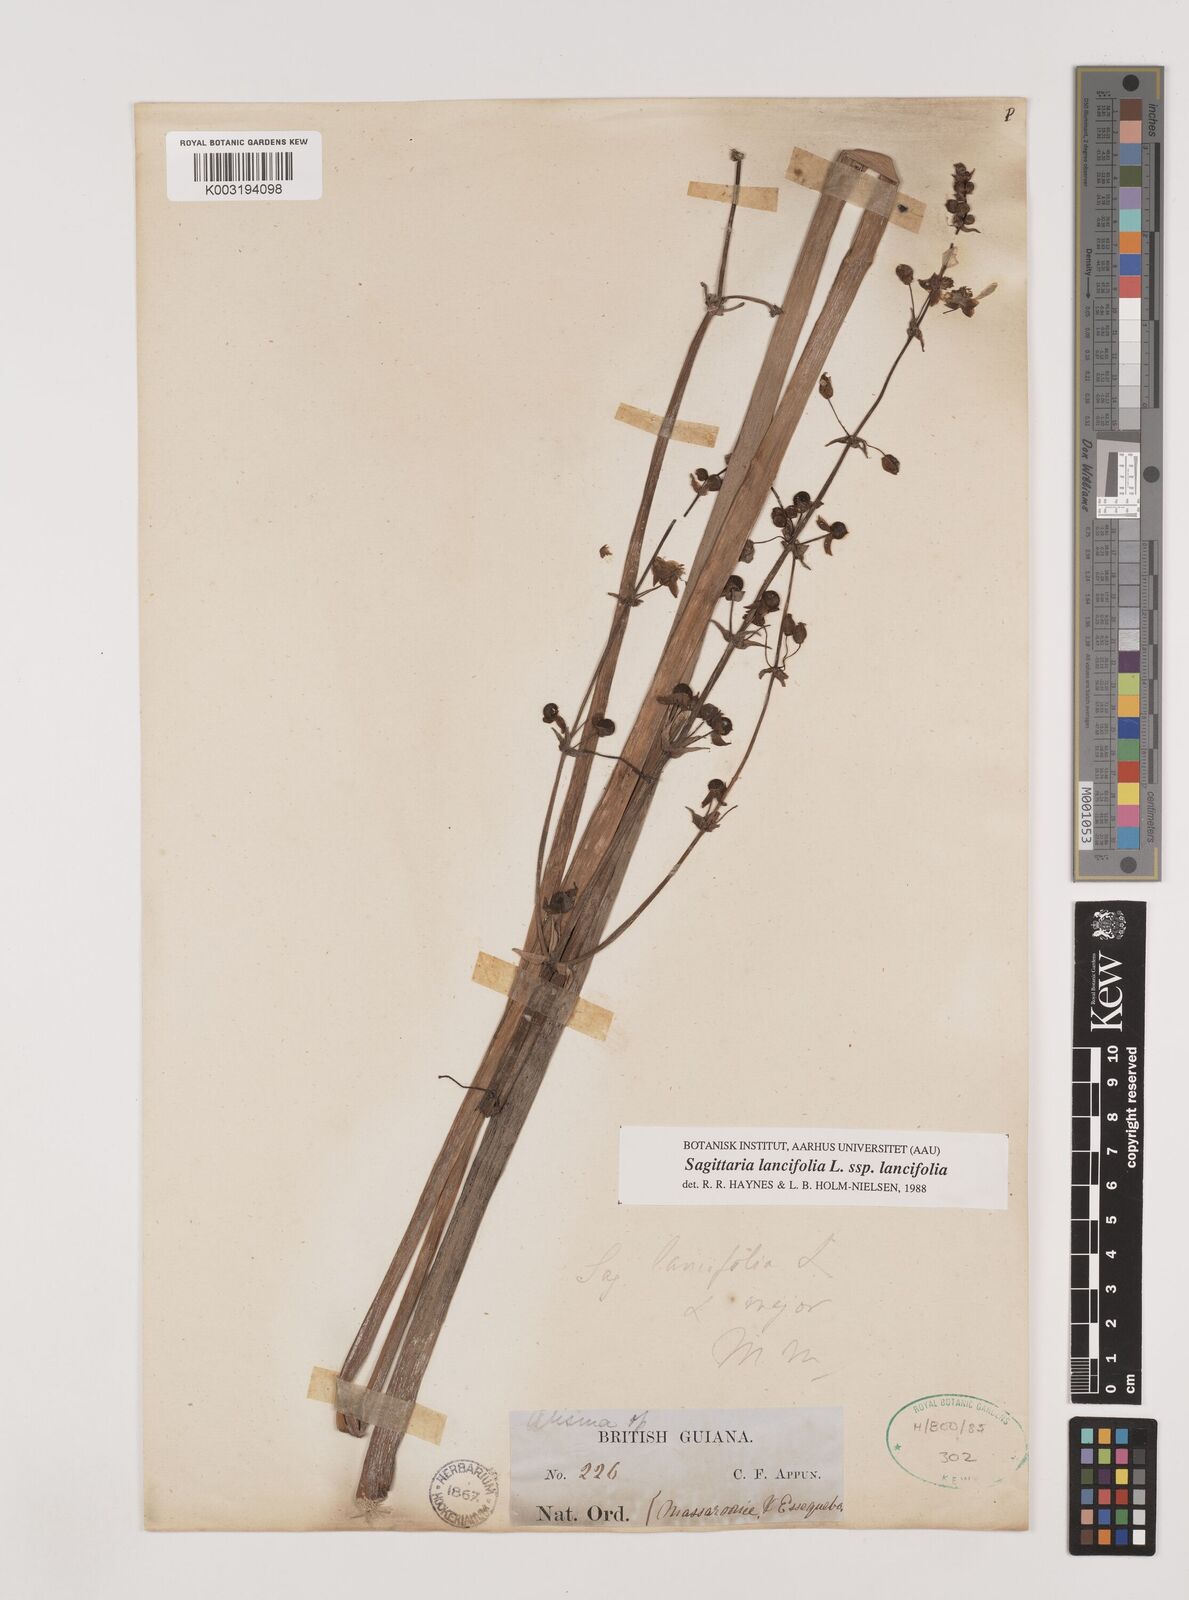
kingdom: Plantae
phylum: Tracheophyta
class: Liliopsida
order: Alismatales
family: Alismataceae
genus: Sagittaria
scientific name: Sagittaria lancifolia
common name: Lance-leaf arrowhead
